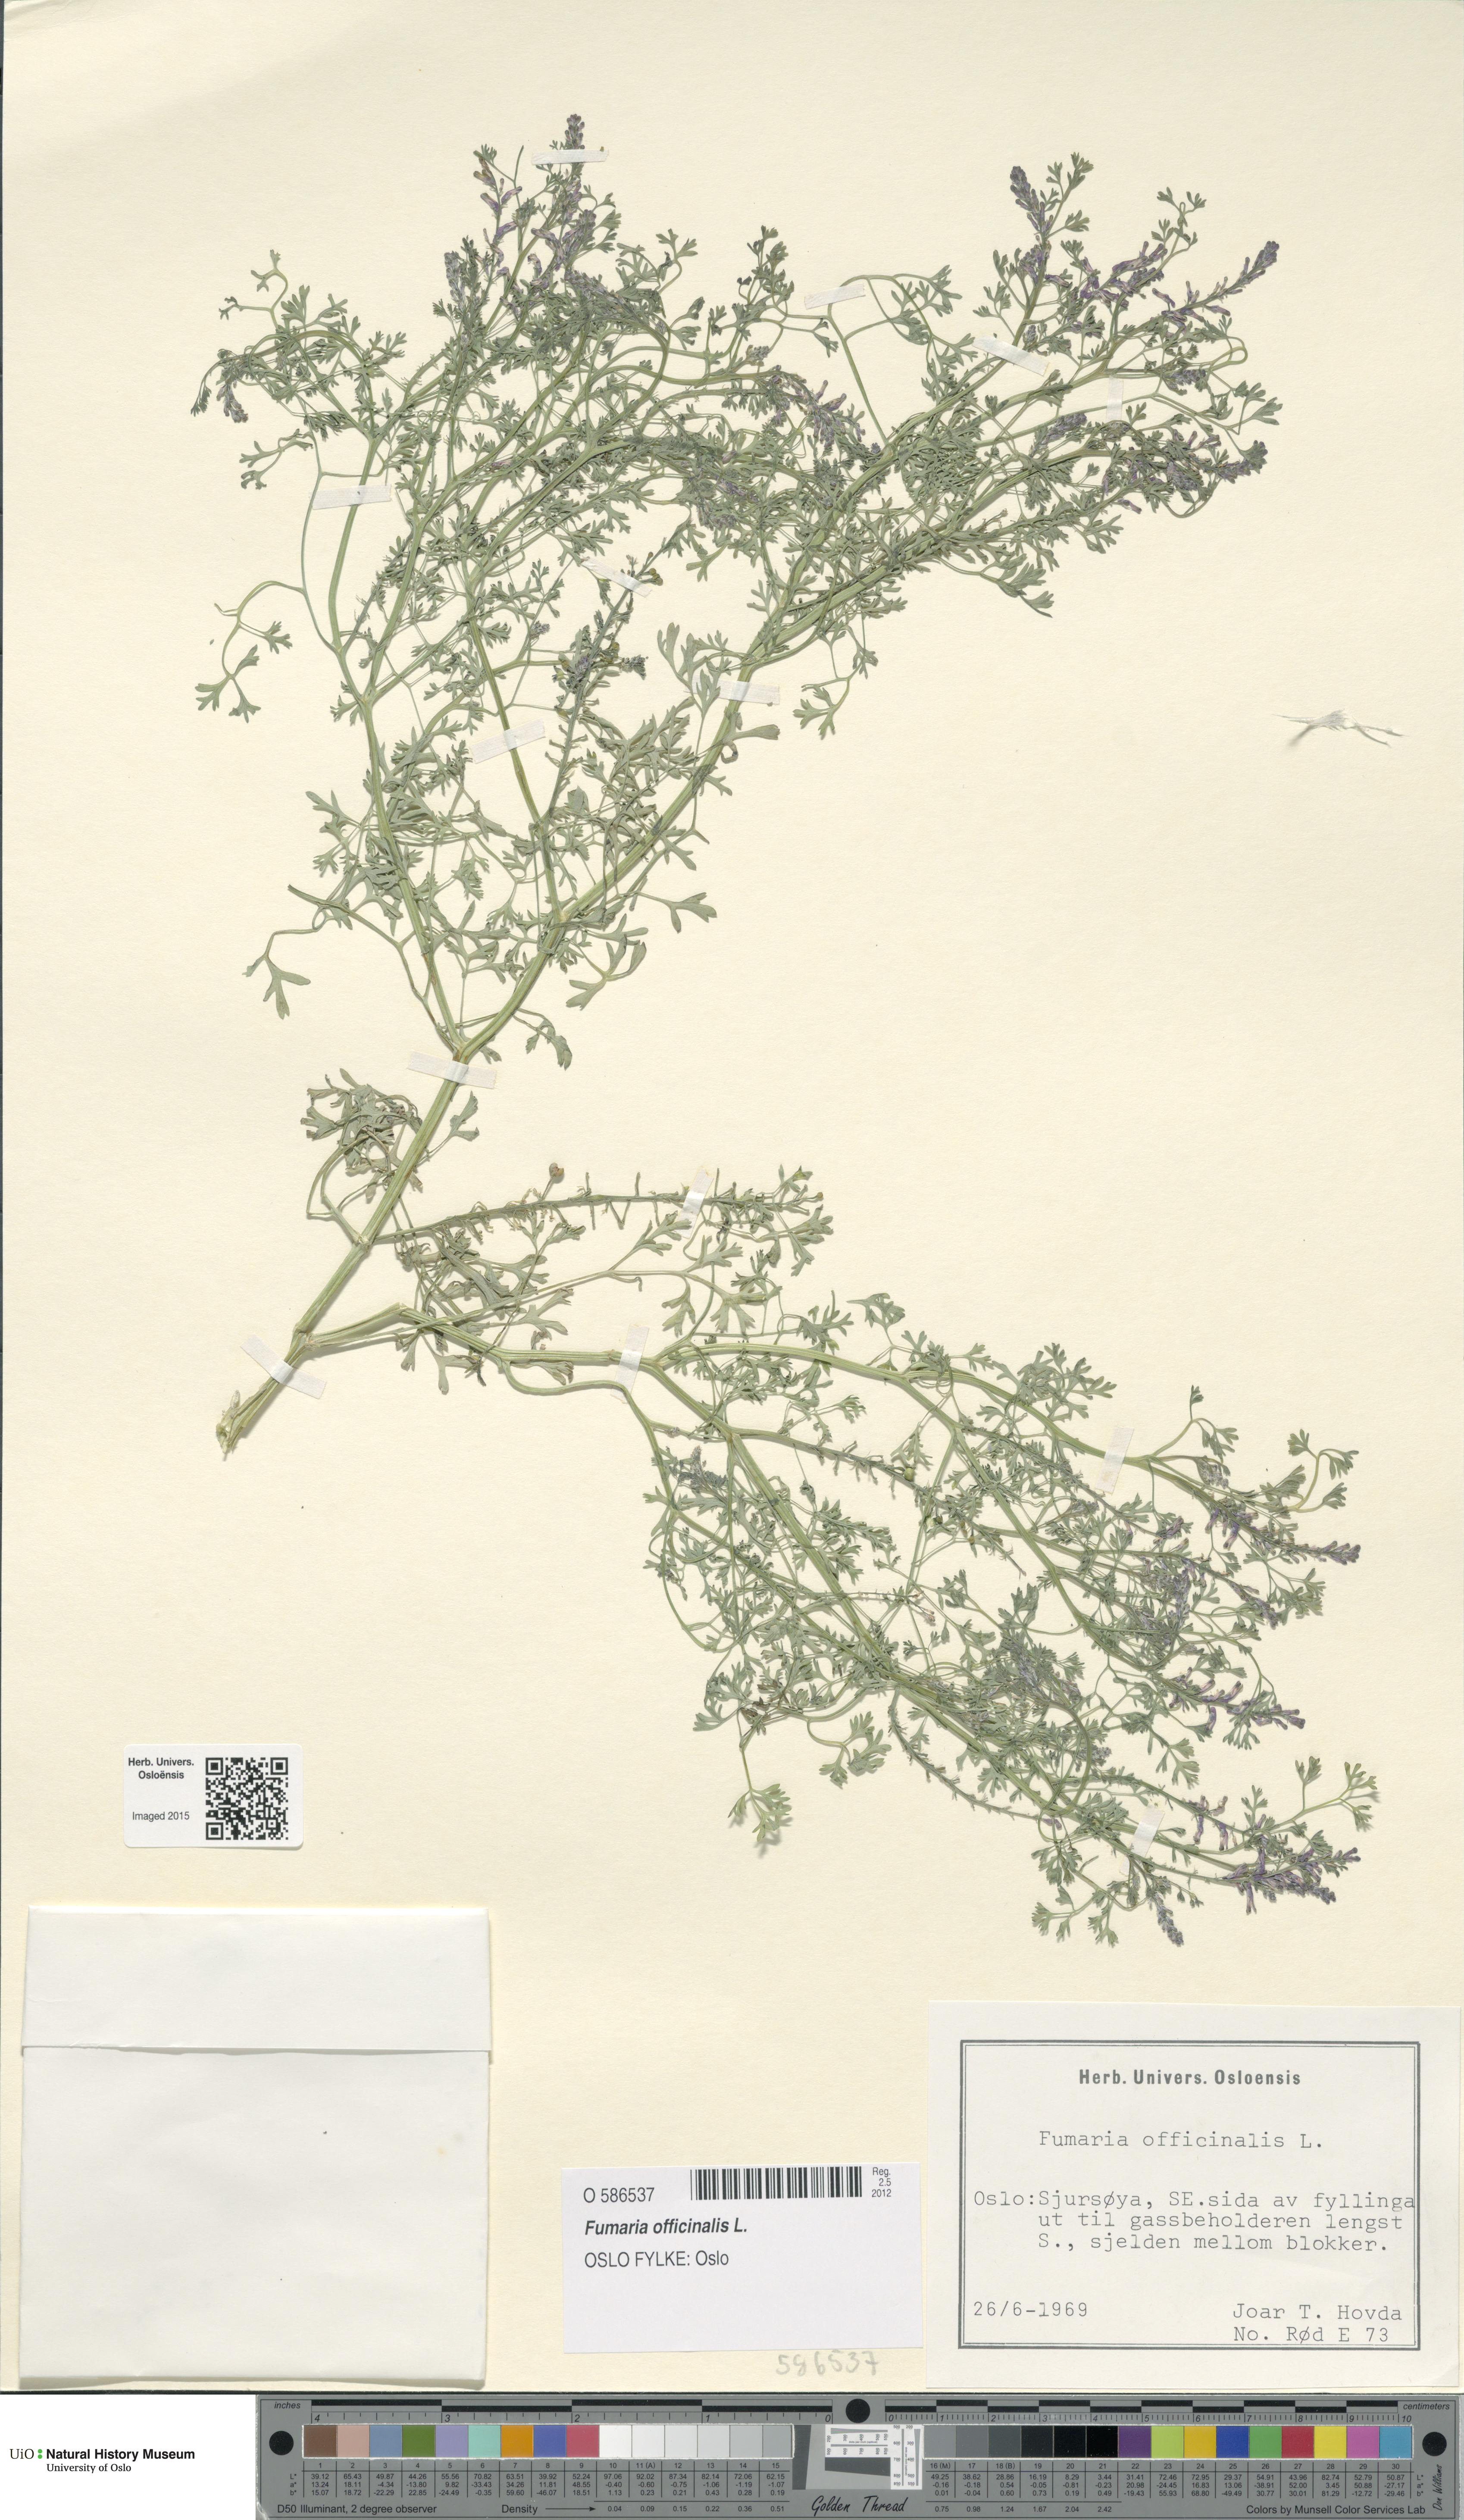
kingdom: Plantae
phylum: Tracheophyta
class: Magnoliopsida
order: Ranunculales
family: Papaveraceae
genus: Fumaria
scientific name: Fumaria officinalis
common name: Common fumitory
